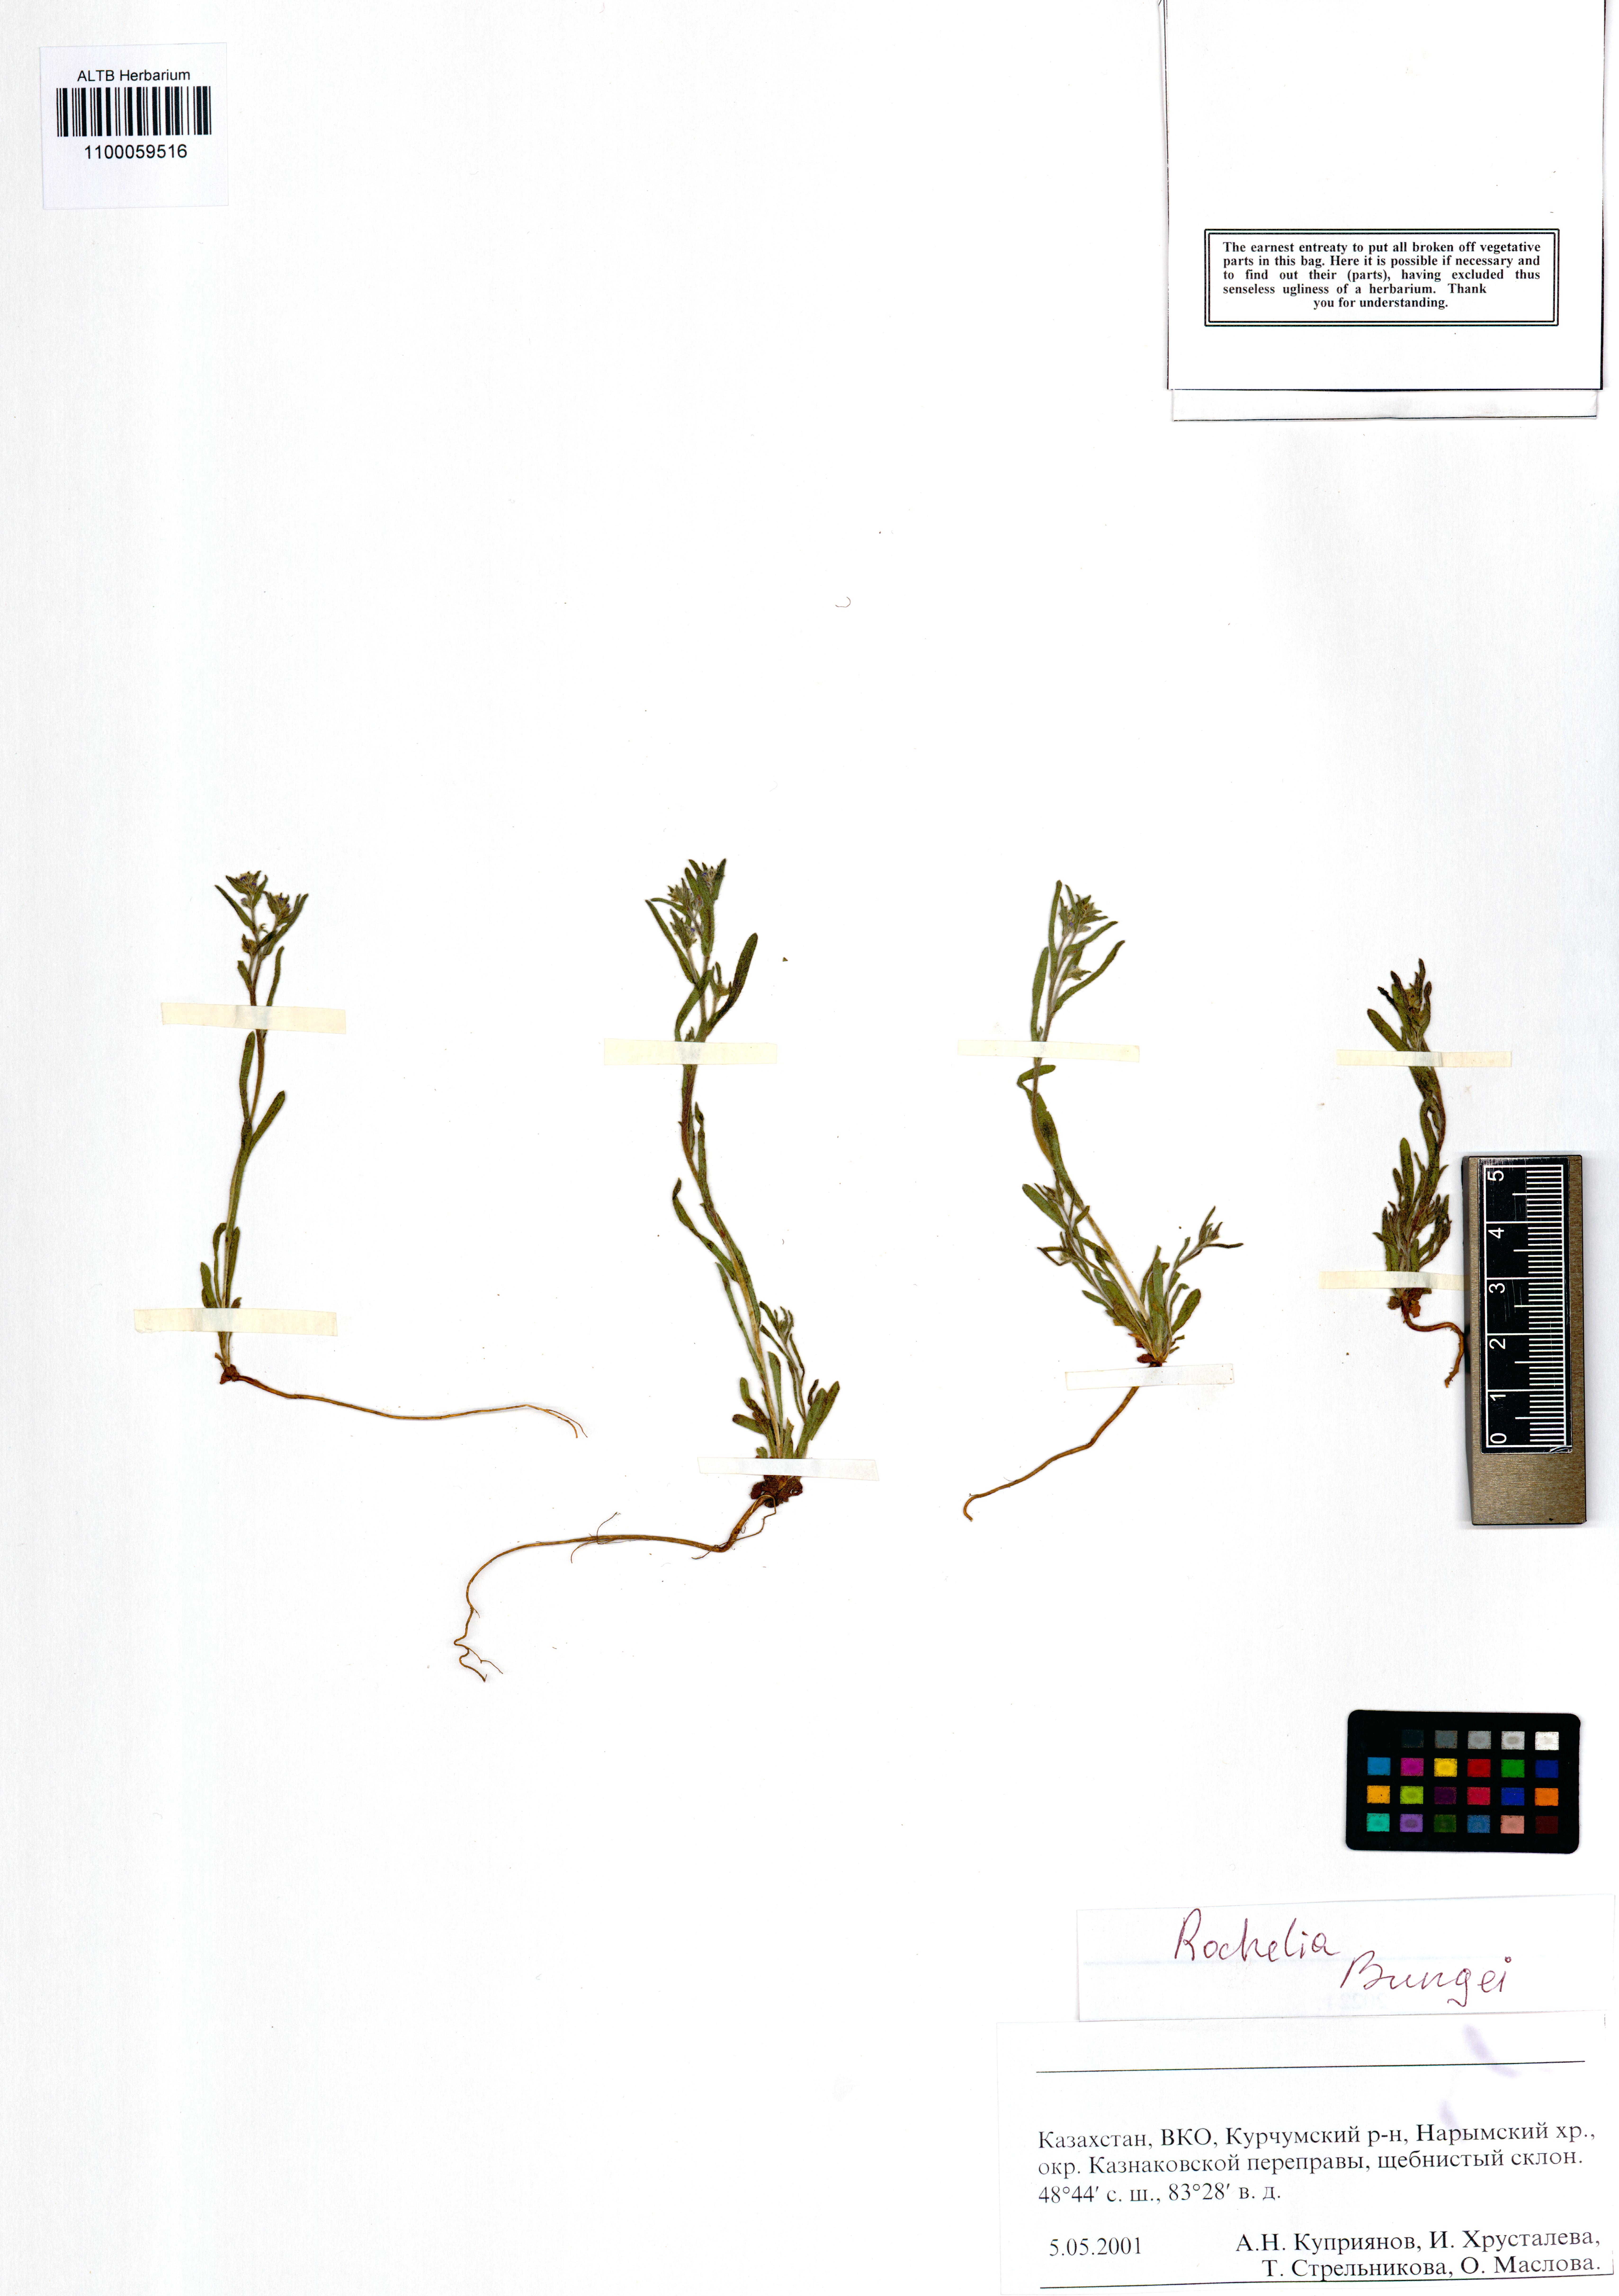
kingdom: Plantae
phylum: Tracheophyta
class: Magnoliopsida
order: Boraginales
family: Boraginaceae
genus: Rochelia
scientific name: Rochelia bungei
